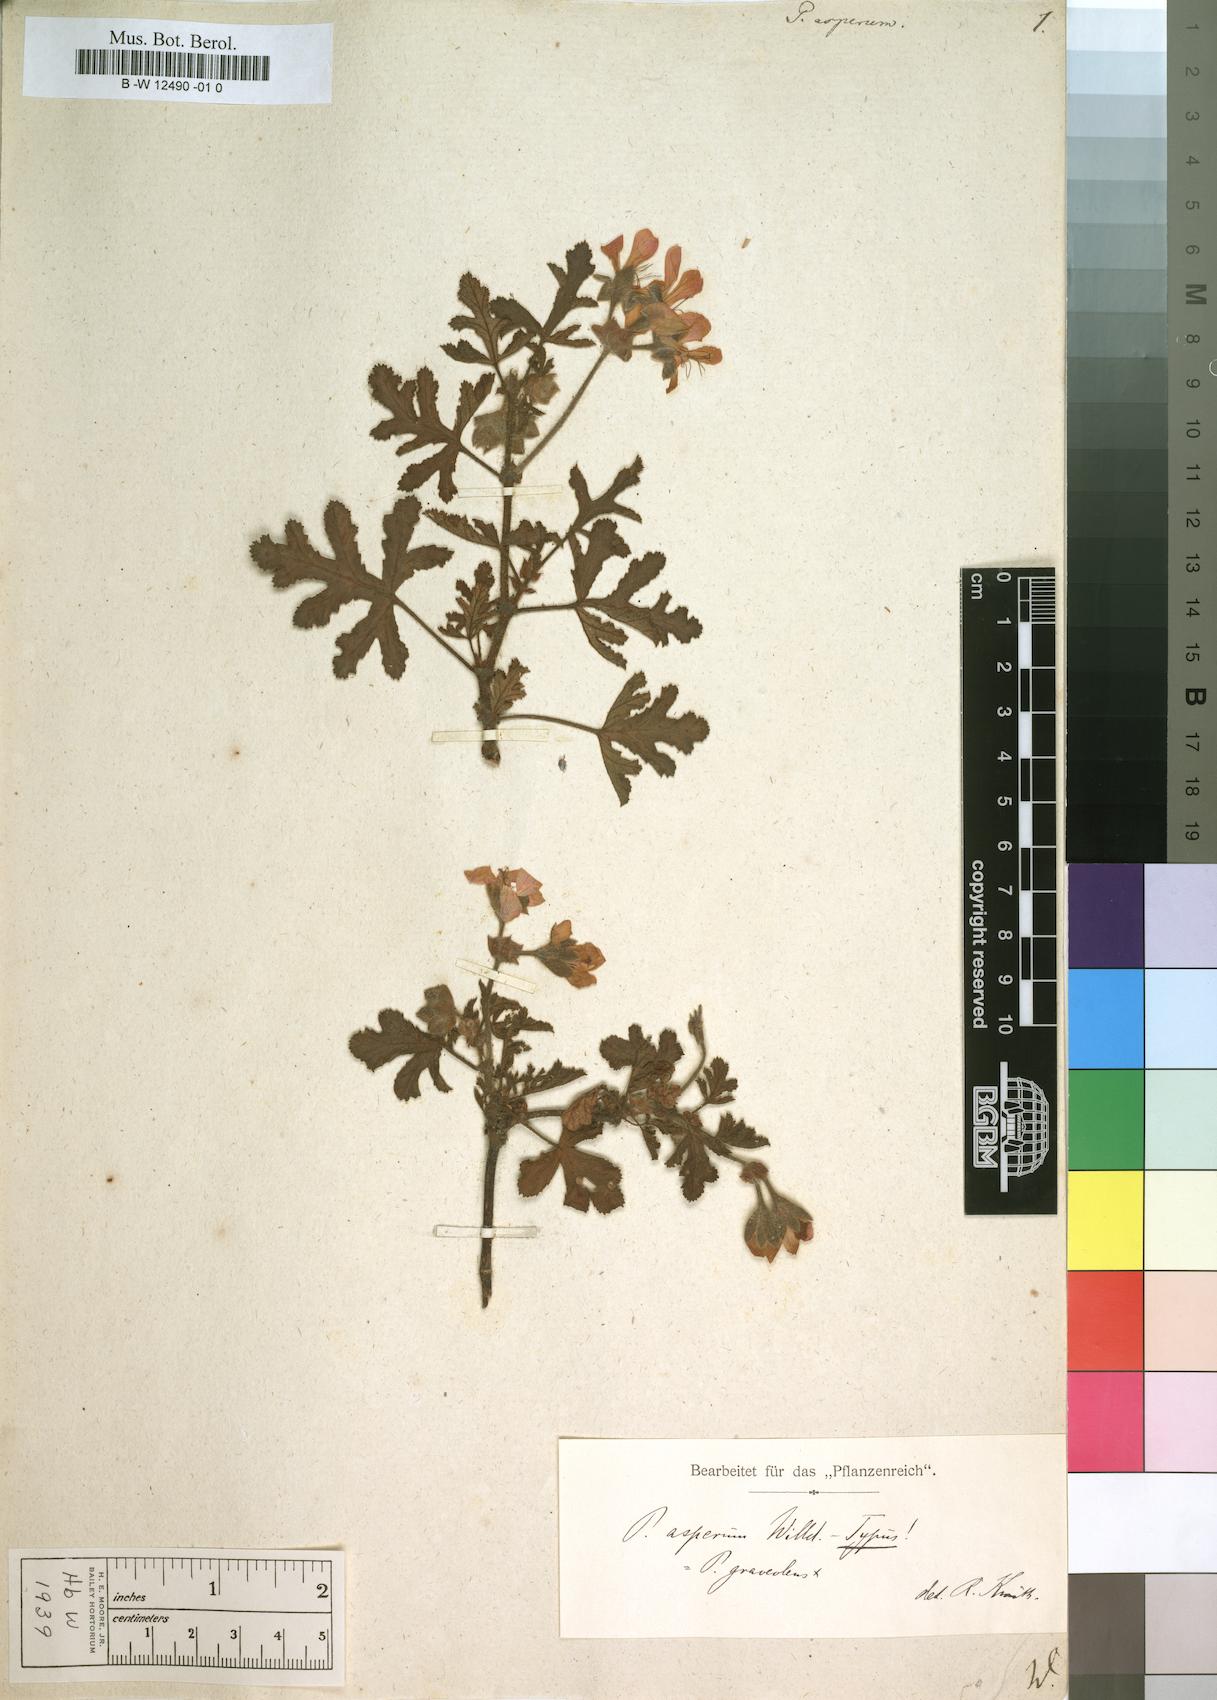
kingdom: Plantae
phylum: Tracheophyta
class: Magnoliopsida
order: Geraniales
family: Geraniaceae
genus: Pelargonium
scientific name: Pelargonium asperum
